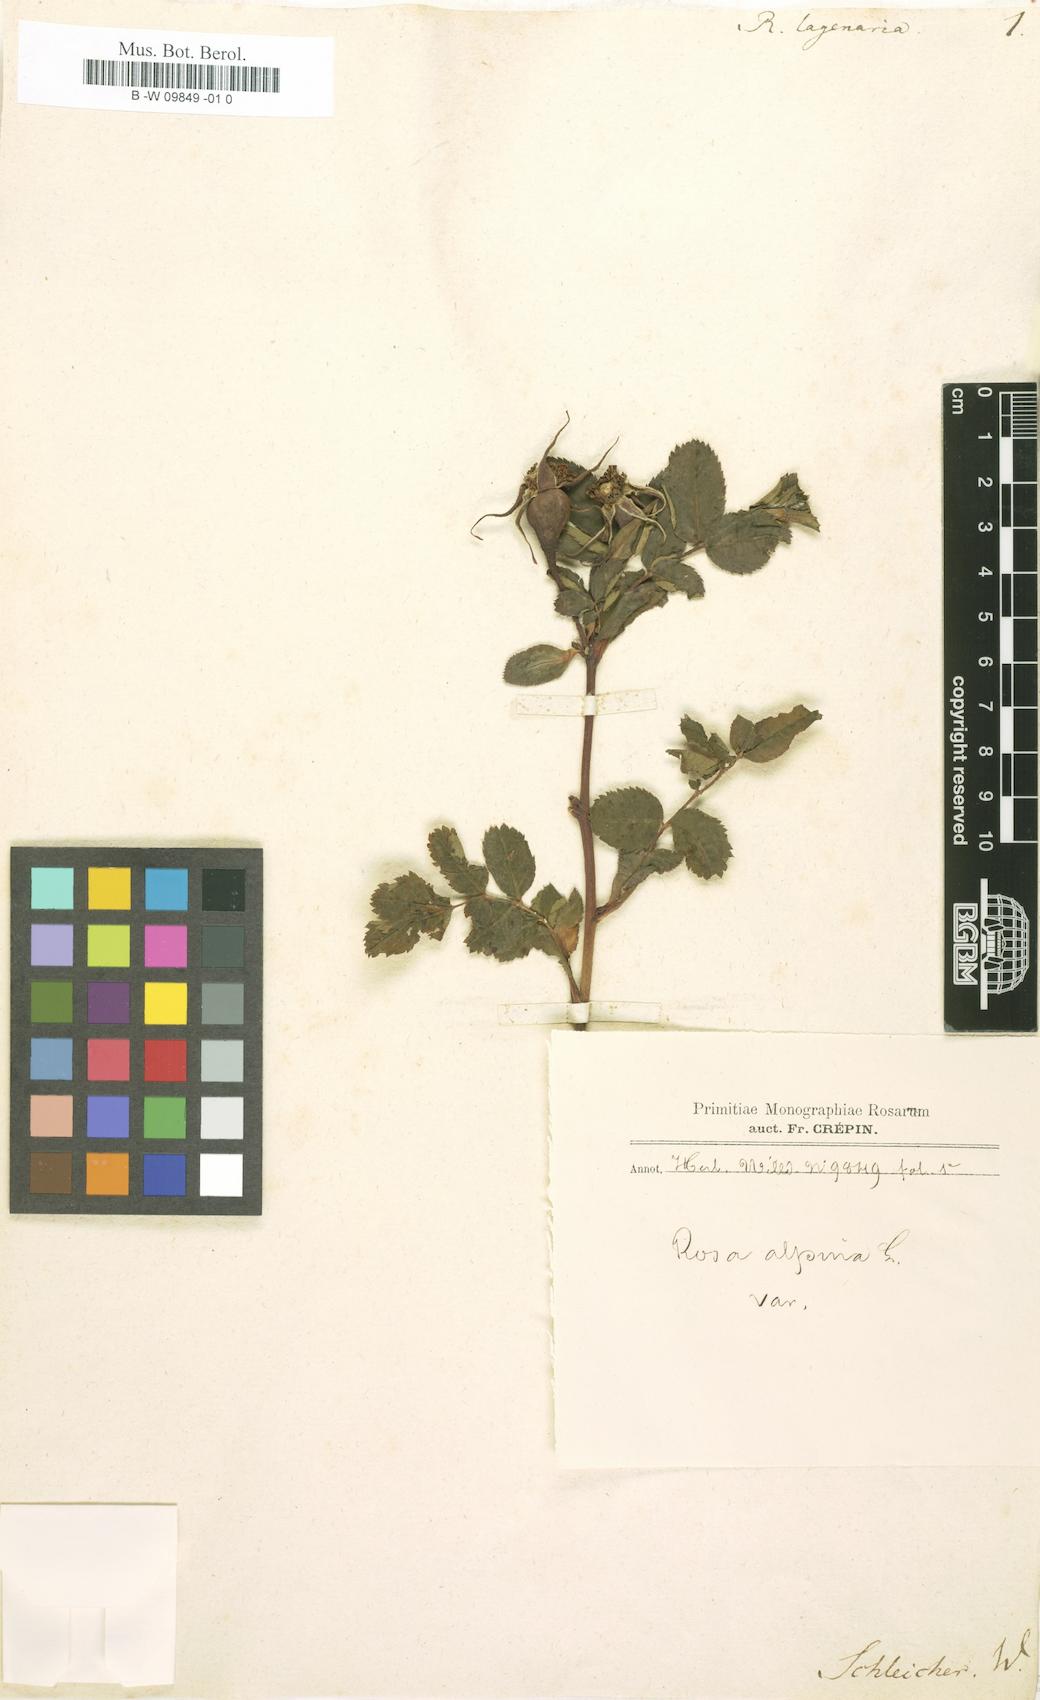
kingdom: Plantae
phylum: Tracheophyta
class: Magnoliopsida
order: Rosales
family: Rosaceae
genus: Rosa
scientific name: Rosa pendulina
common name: Alpine rose
